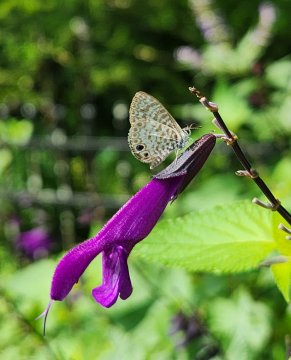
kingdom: Animalia
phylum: Arthropoda
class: Insecta
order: Lepidoptera
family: Lycaenidae
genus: Leptotes
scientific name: Leptotes cassius
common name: Cassius Blue
